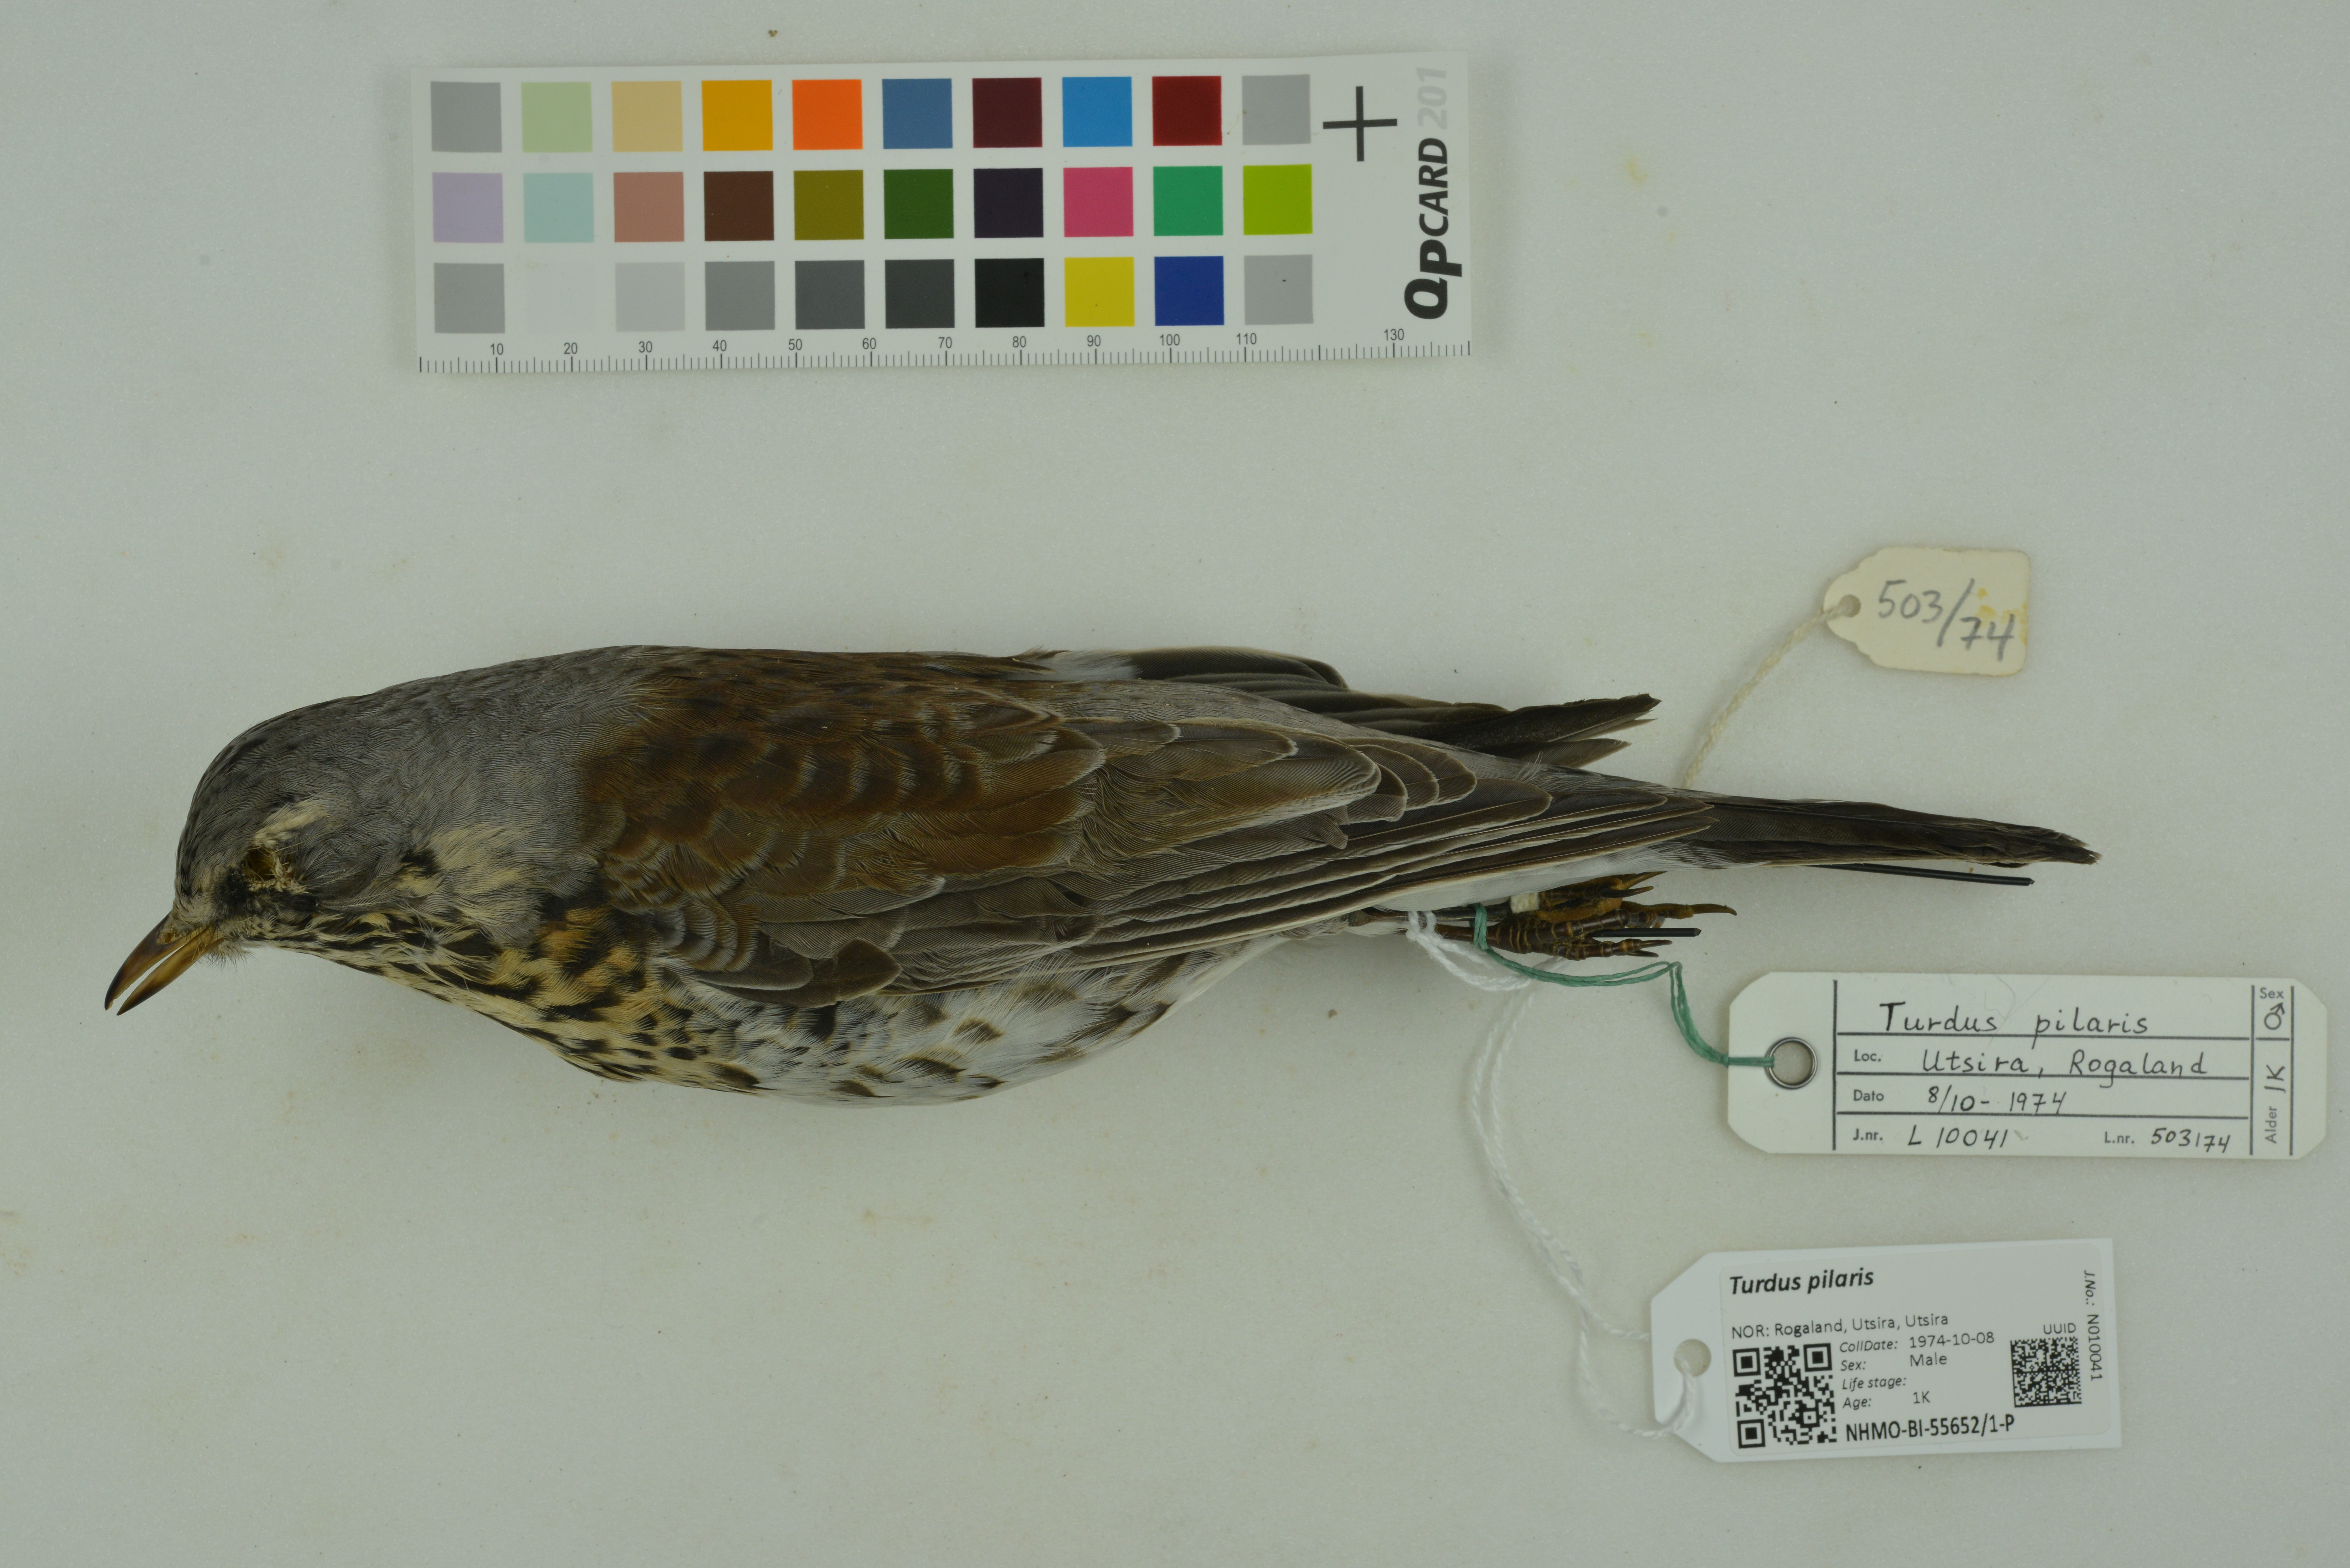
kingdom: Animalia
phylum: Chordata
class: Aves
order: Passeriformes
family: Turdidae
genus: Turdus
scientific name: Turdus pilaris
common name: Fieldfare
